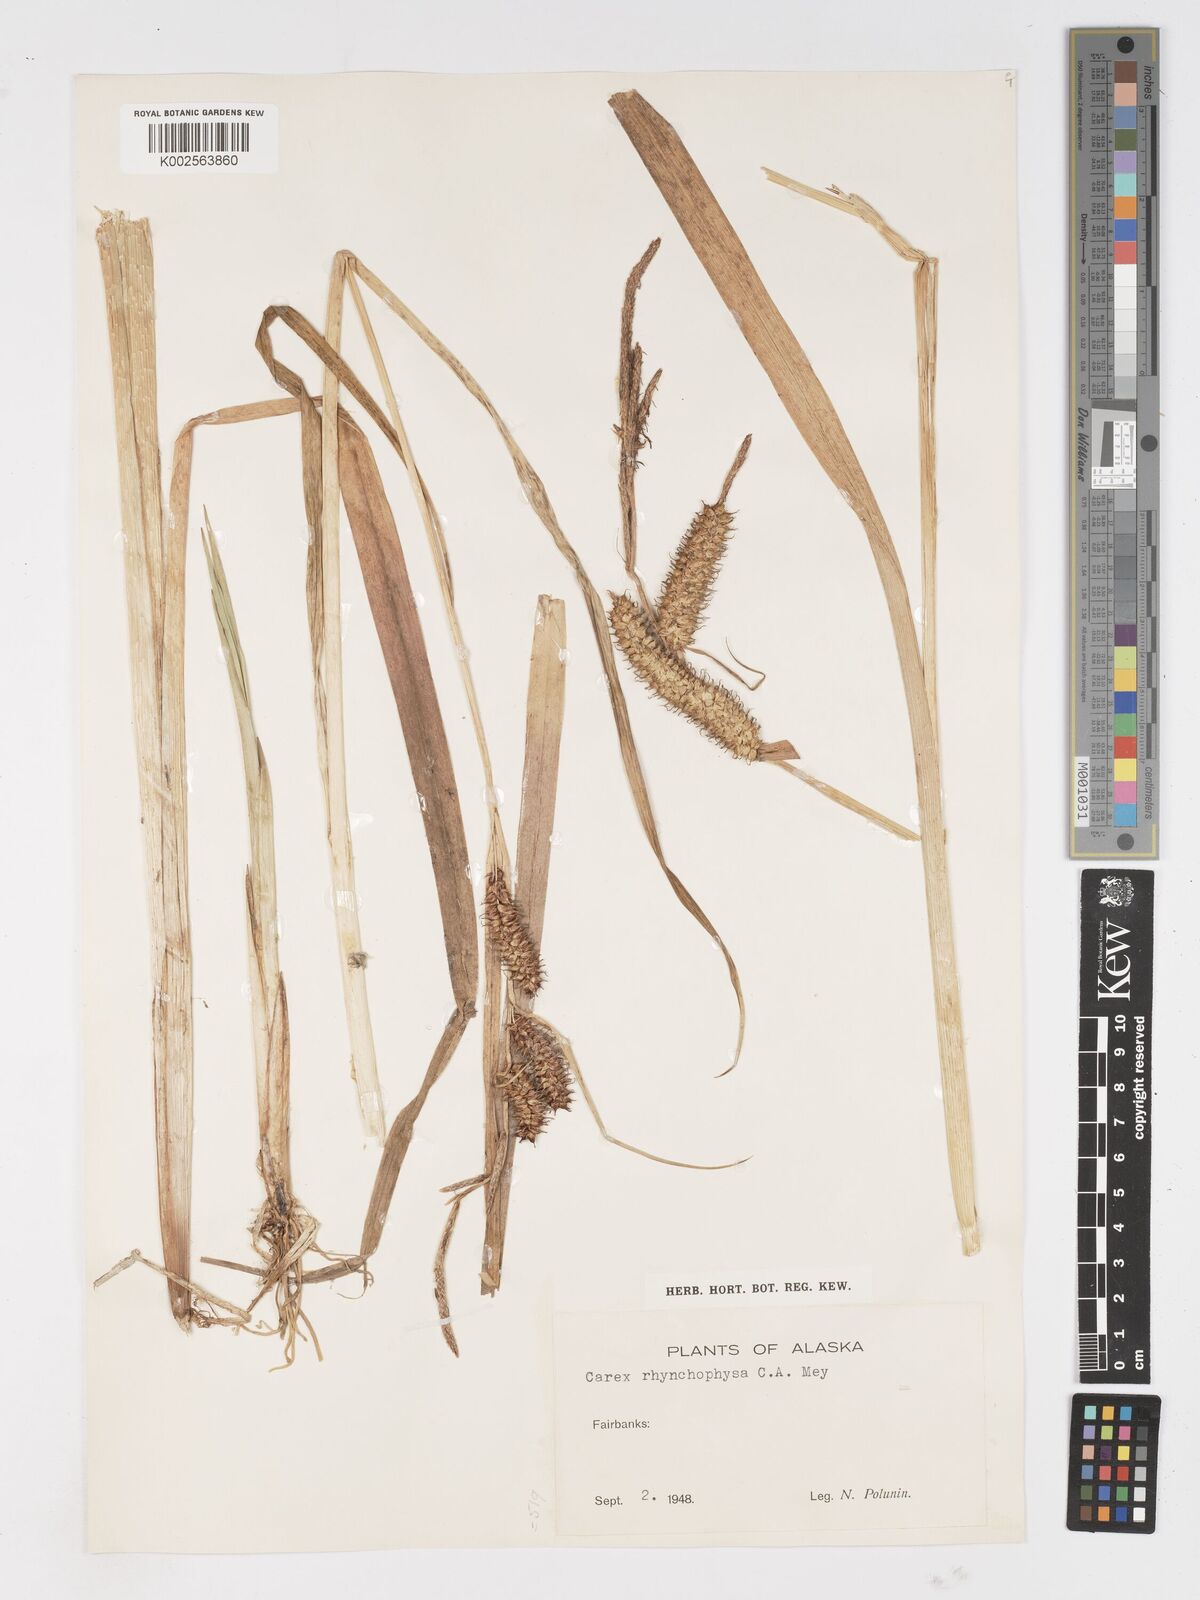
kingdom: Plantae
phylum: Tracheophyta
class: Liliopsida
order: Poales
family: Cyperaceae
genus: Carex
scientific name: Carex utriculata
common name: Beaked sedge
